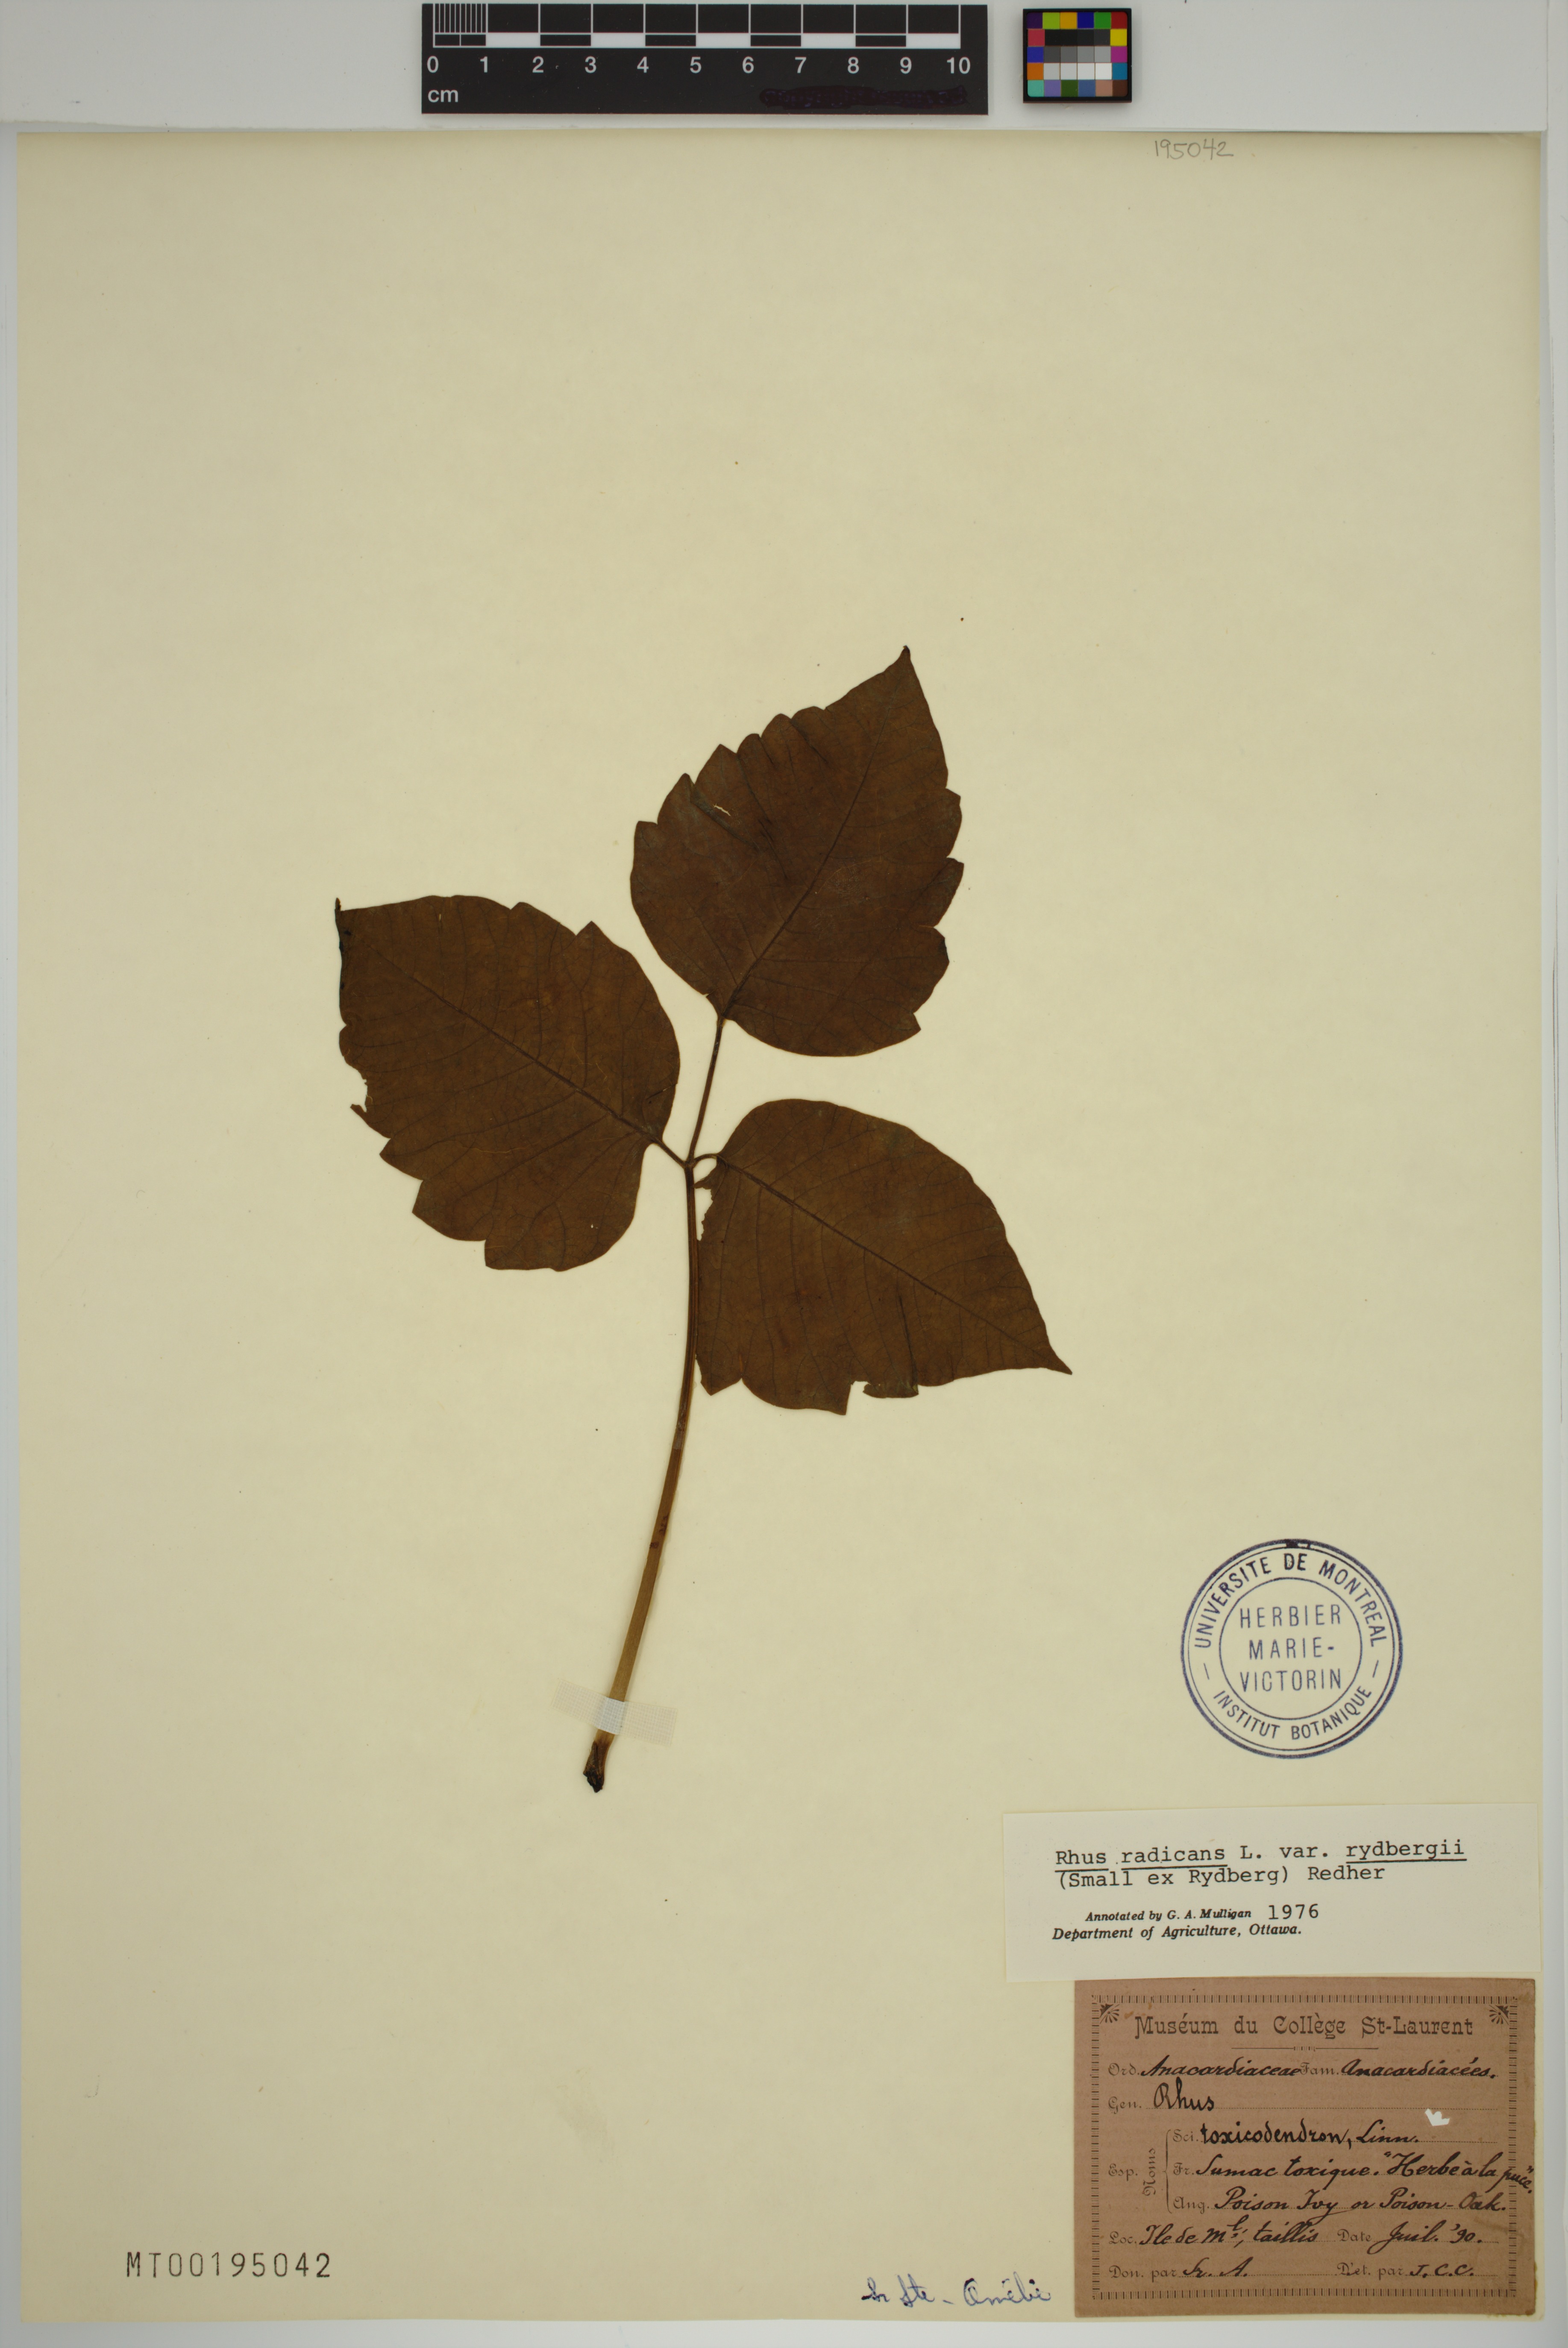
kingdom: Plantae
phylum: Tracheophyta
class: Magnoliopsida
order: Sapindales
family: Anacardiaceae
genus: Toxicodendron
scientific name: Toxicodendron rydbergii
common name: Rydberg's poison-ivy
